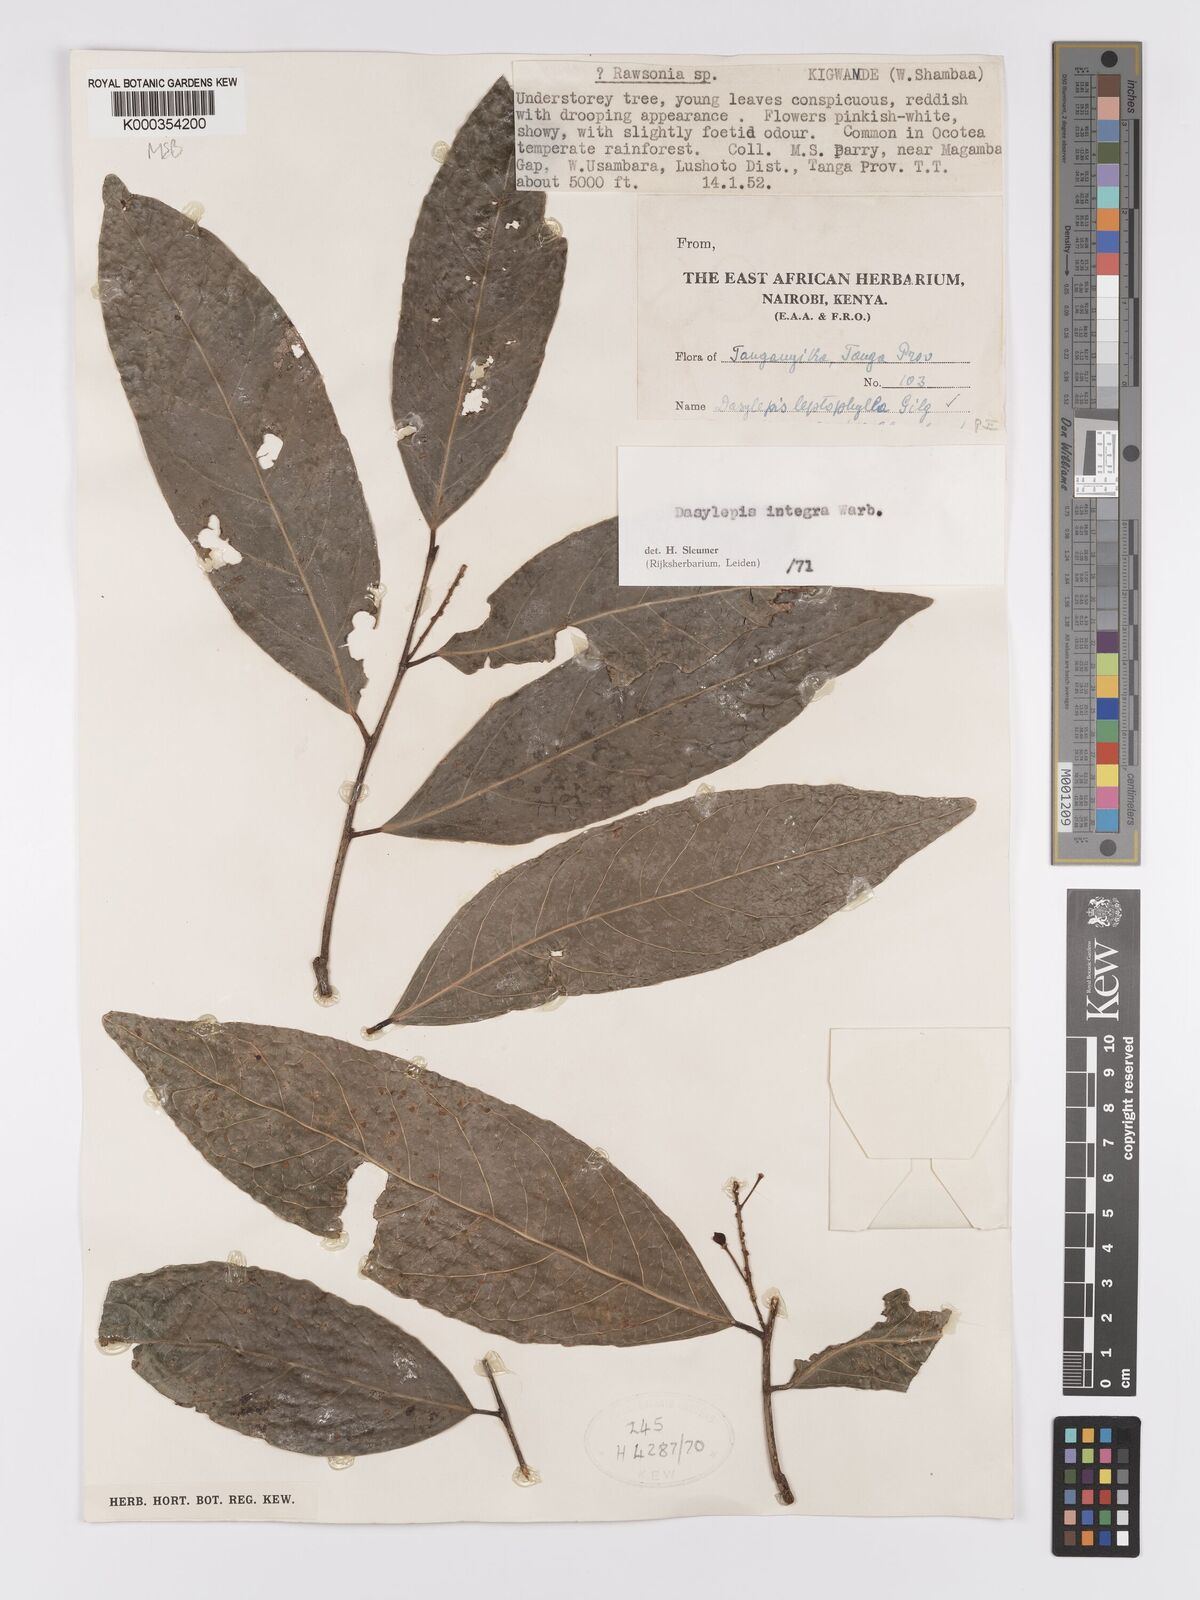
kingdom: Plantae
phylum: Tracheophyta
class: Magnoliopsida
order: Malpighiales
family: Achariaceae
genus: Dasylepis
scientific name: Dasylepis integra
